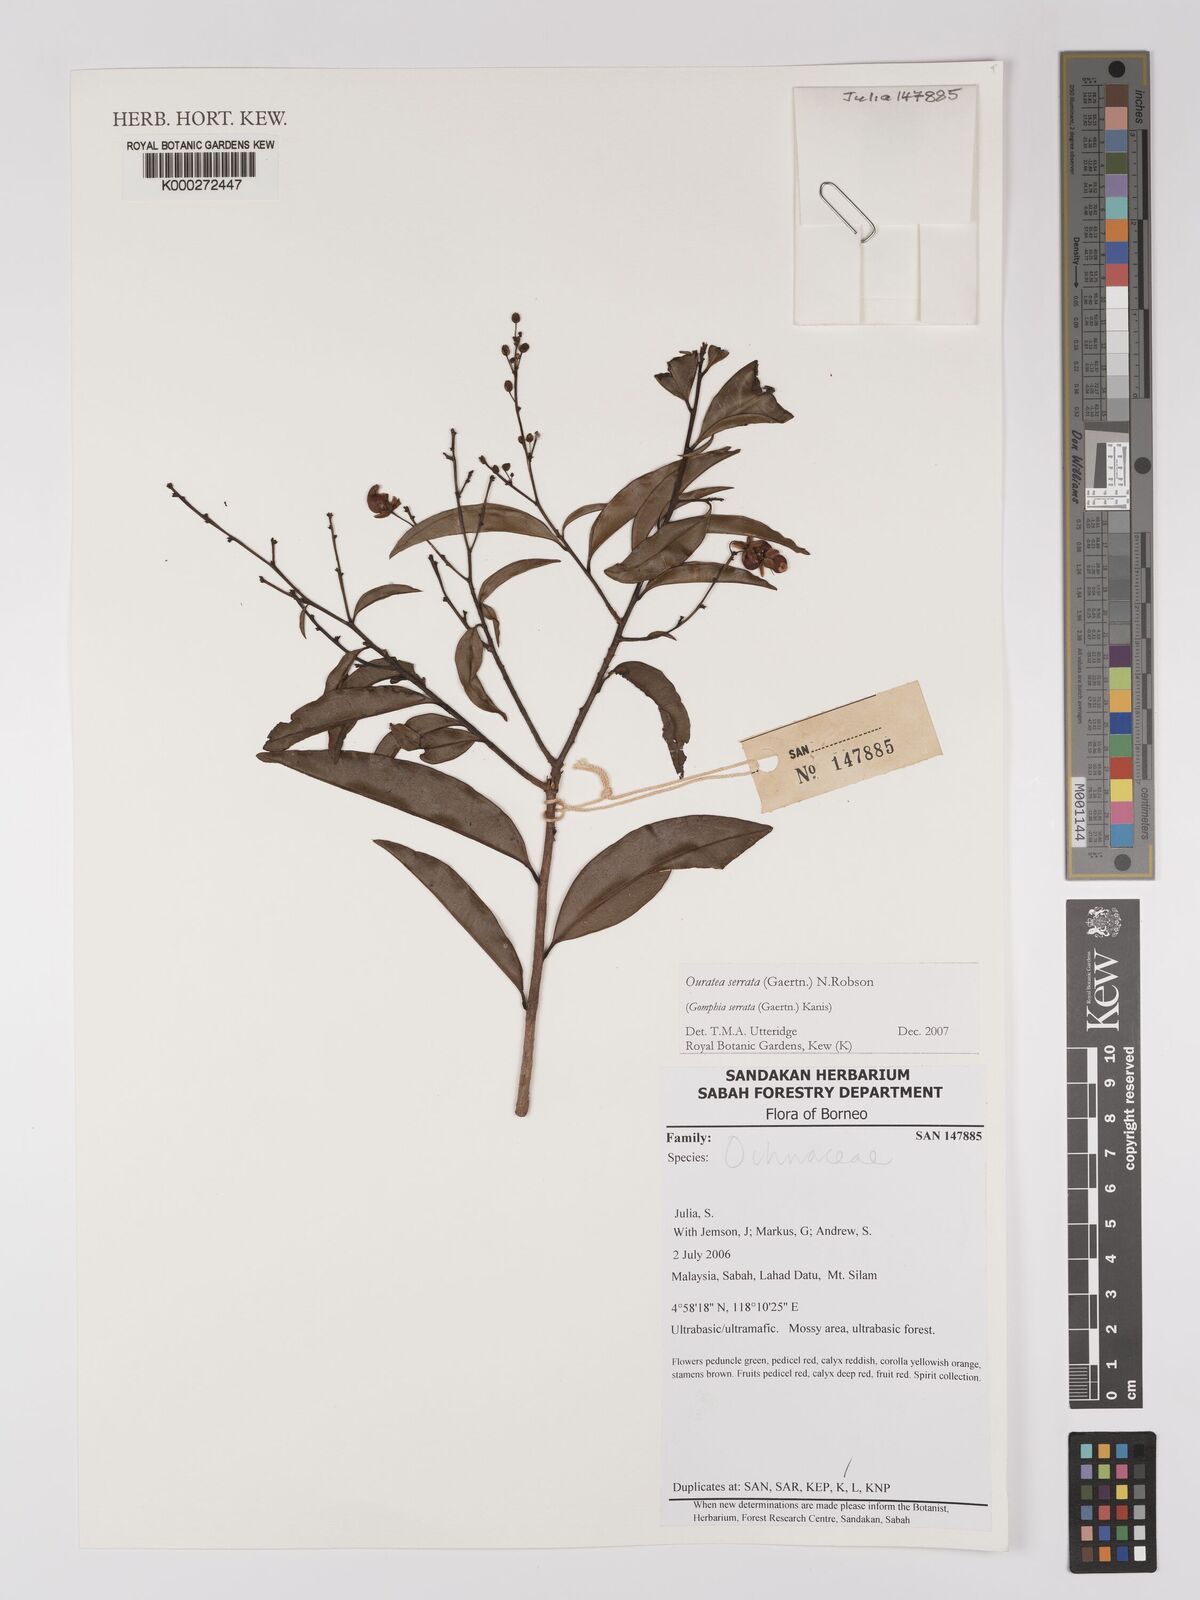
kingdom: Plantae
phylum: Tracheophyta
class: Magnoliopsida
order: Malpighiales
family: Ochnaceae
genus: Gomphia
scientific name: Gomphia serrata
